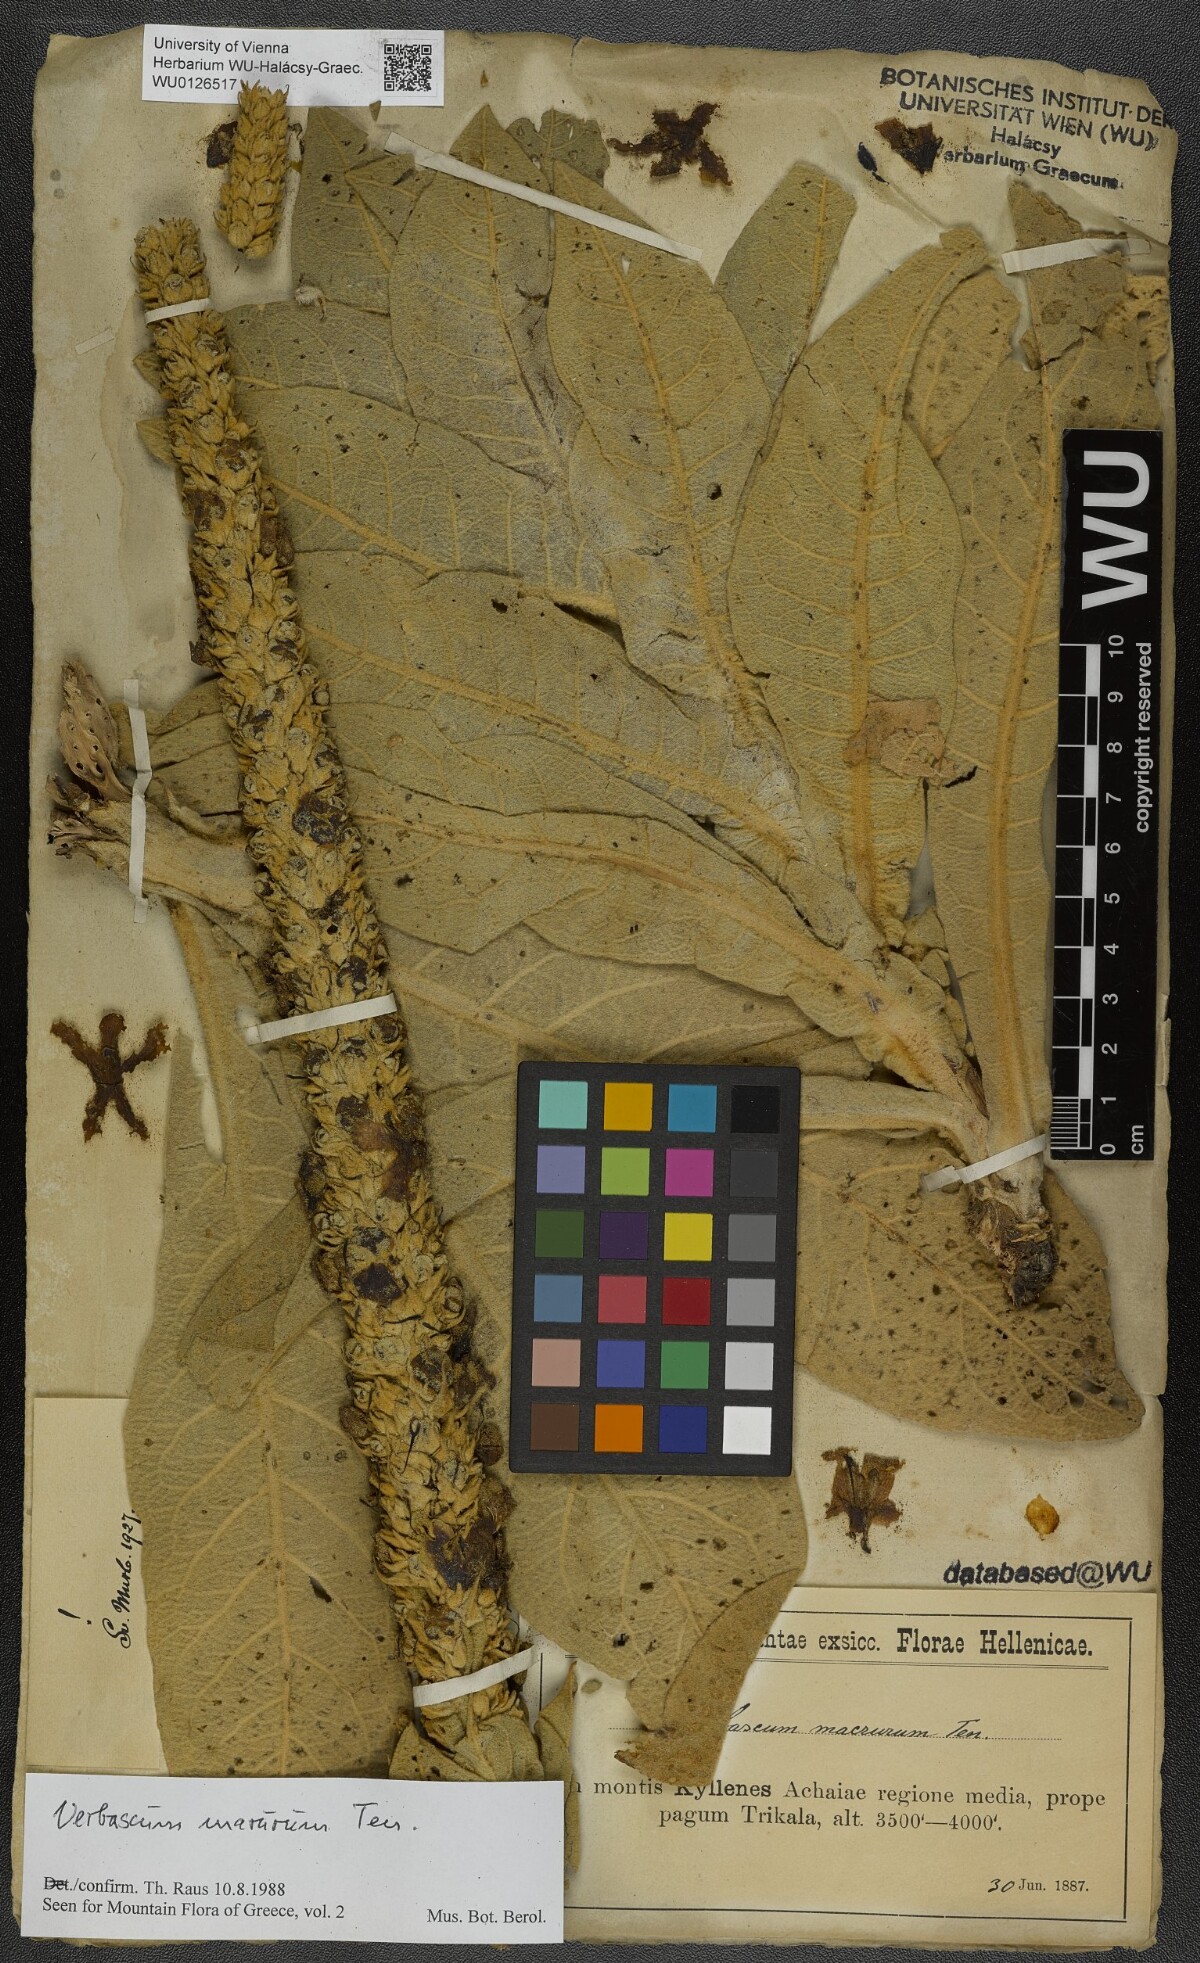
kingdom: Plantae
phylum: Tracheophyta
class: Magnoliopsida
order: Lamiales
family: Scrophulariaceae
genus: Verbascum
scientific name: Verbascum macrurum
